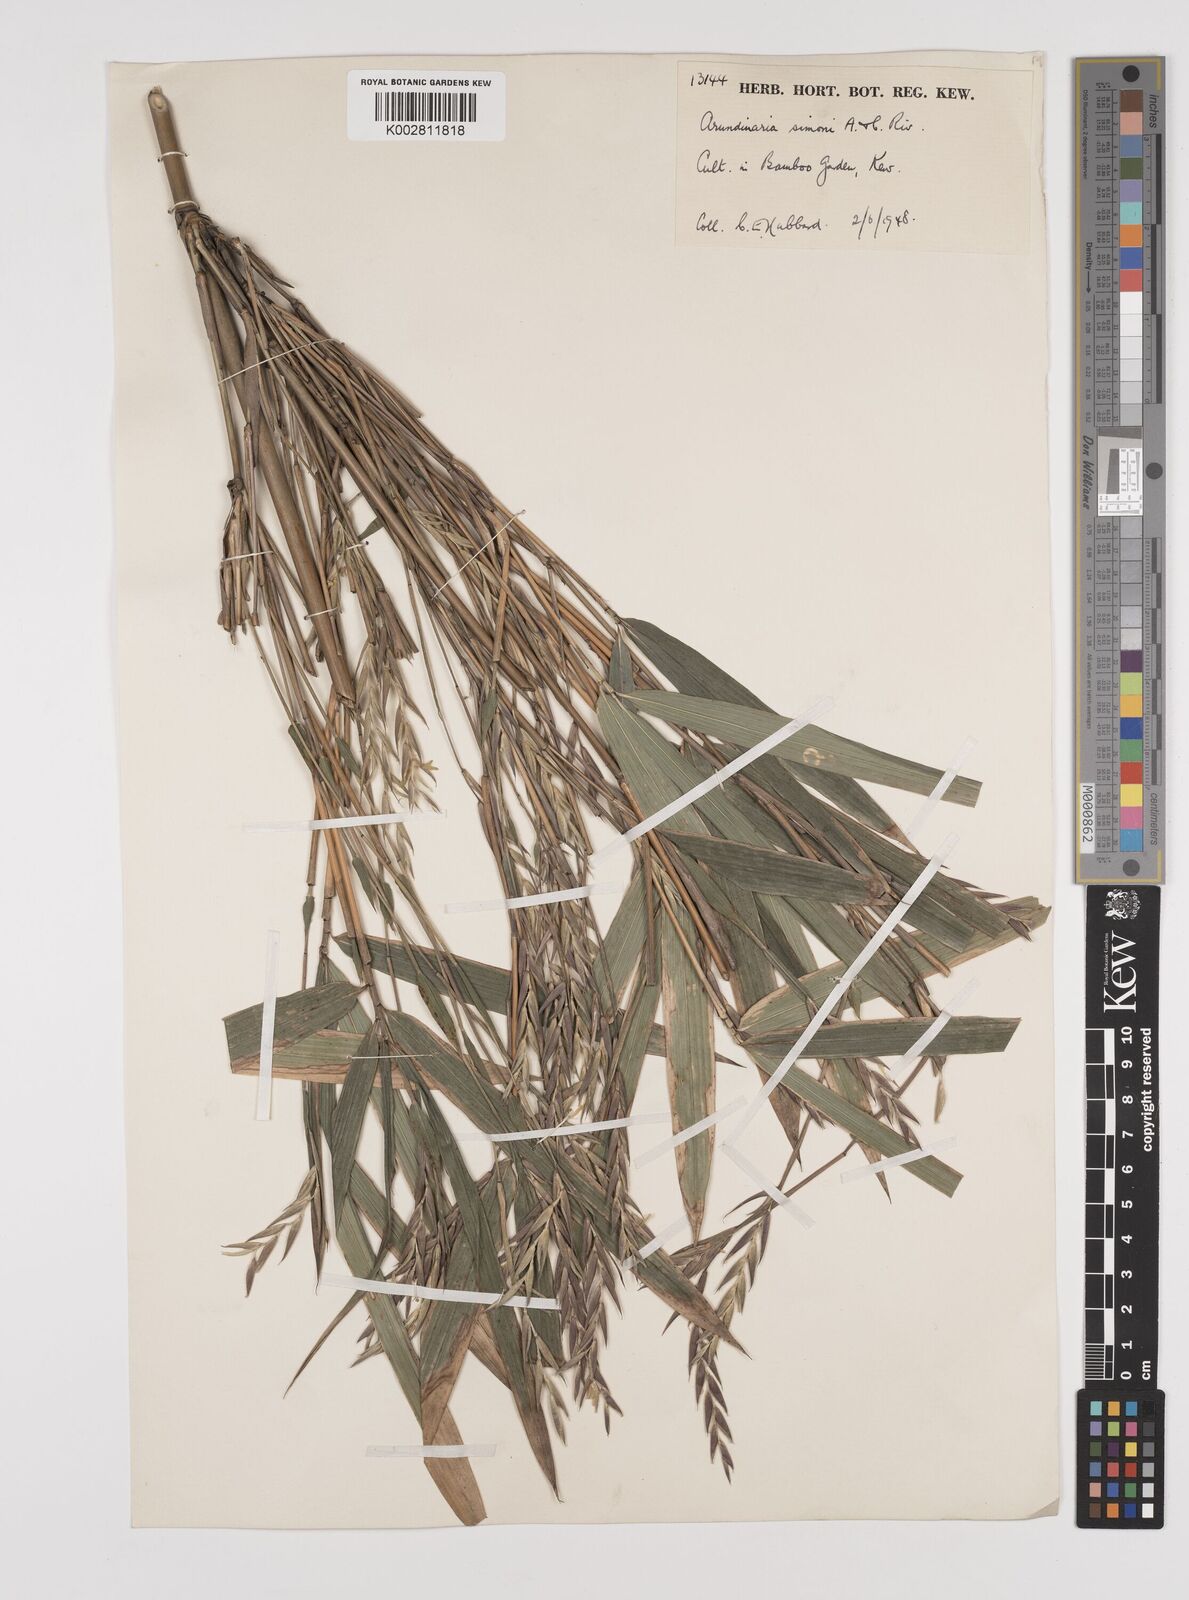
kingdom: Plantae
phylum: Tracheophyta
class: Liliopsida
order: Poales
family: Poaceae
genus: Pleioblastus
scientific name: Pleioblastus simonii
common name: Simon bamboo
